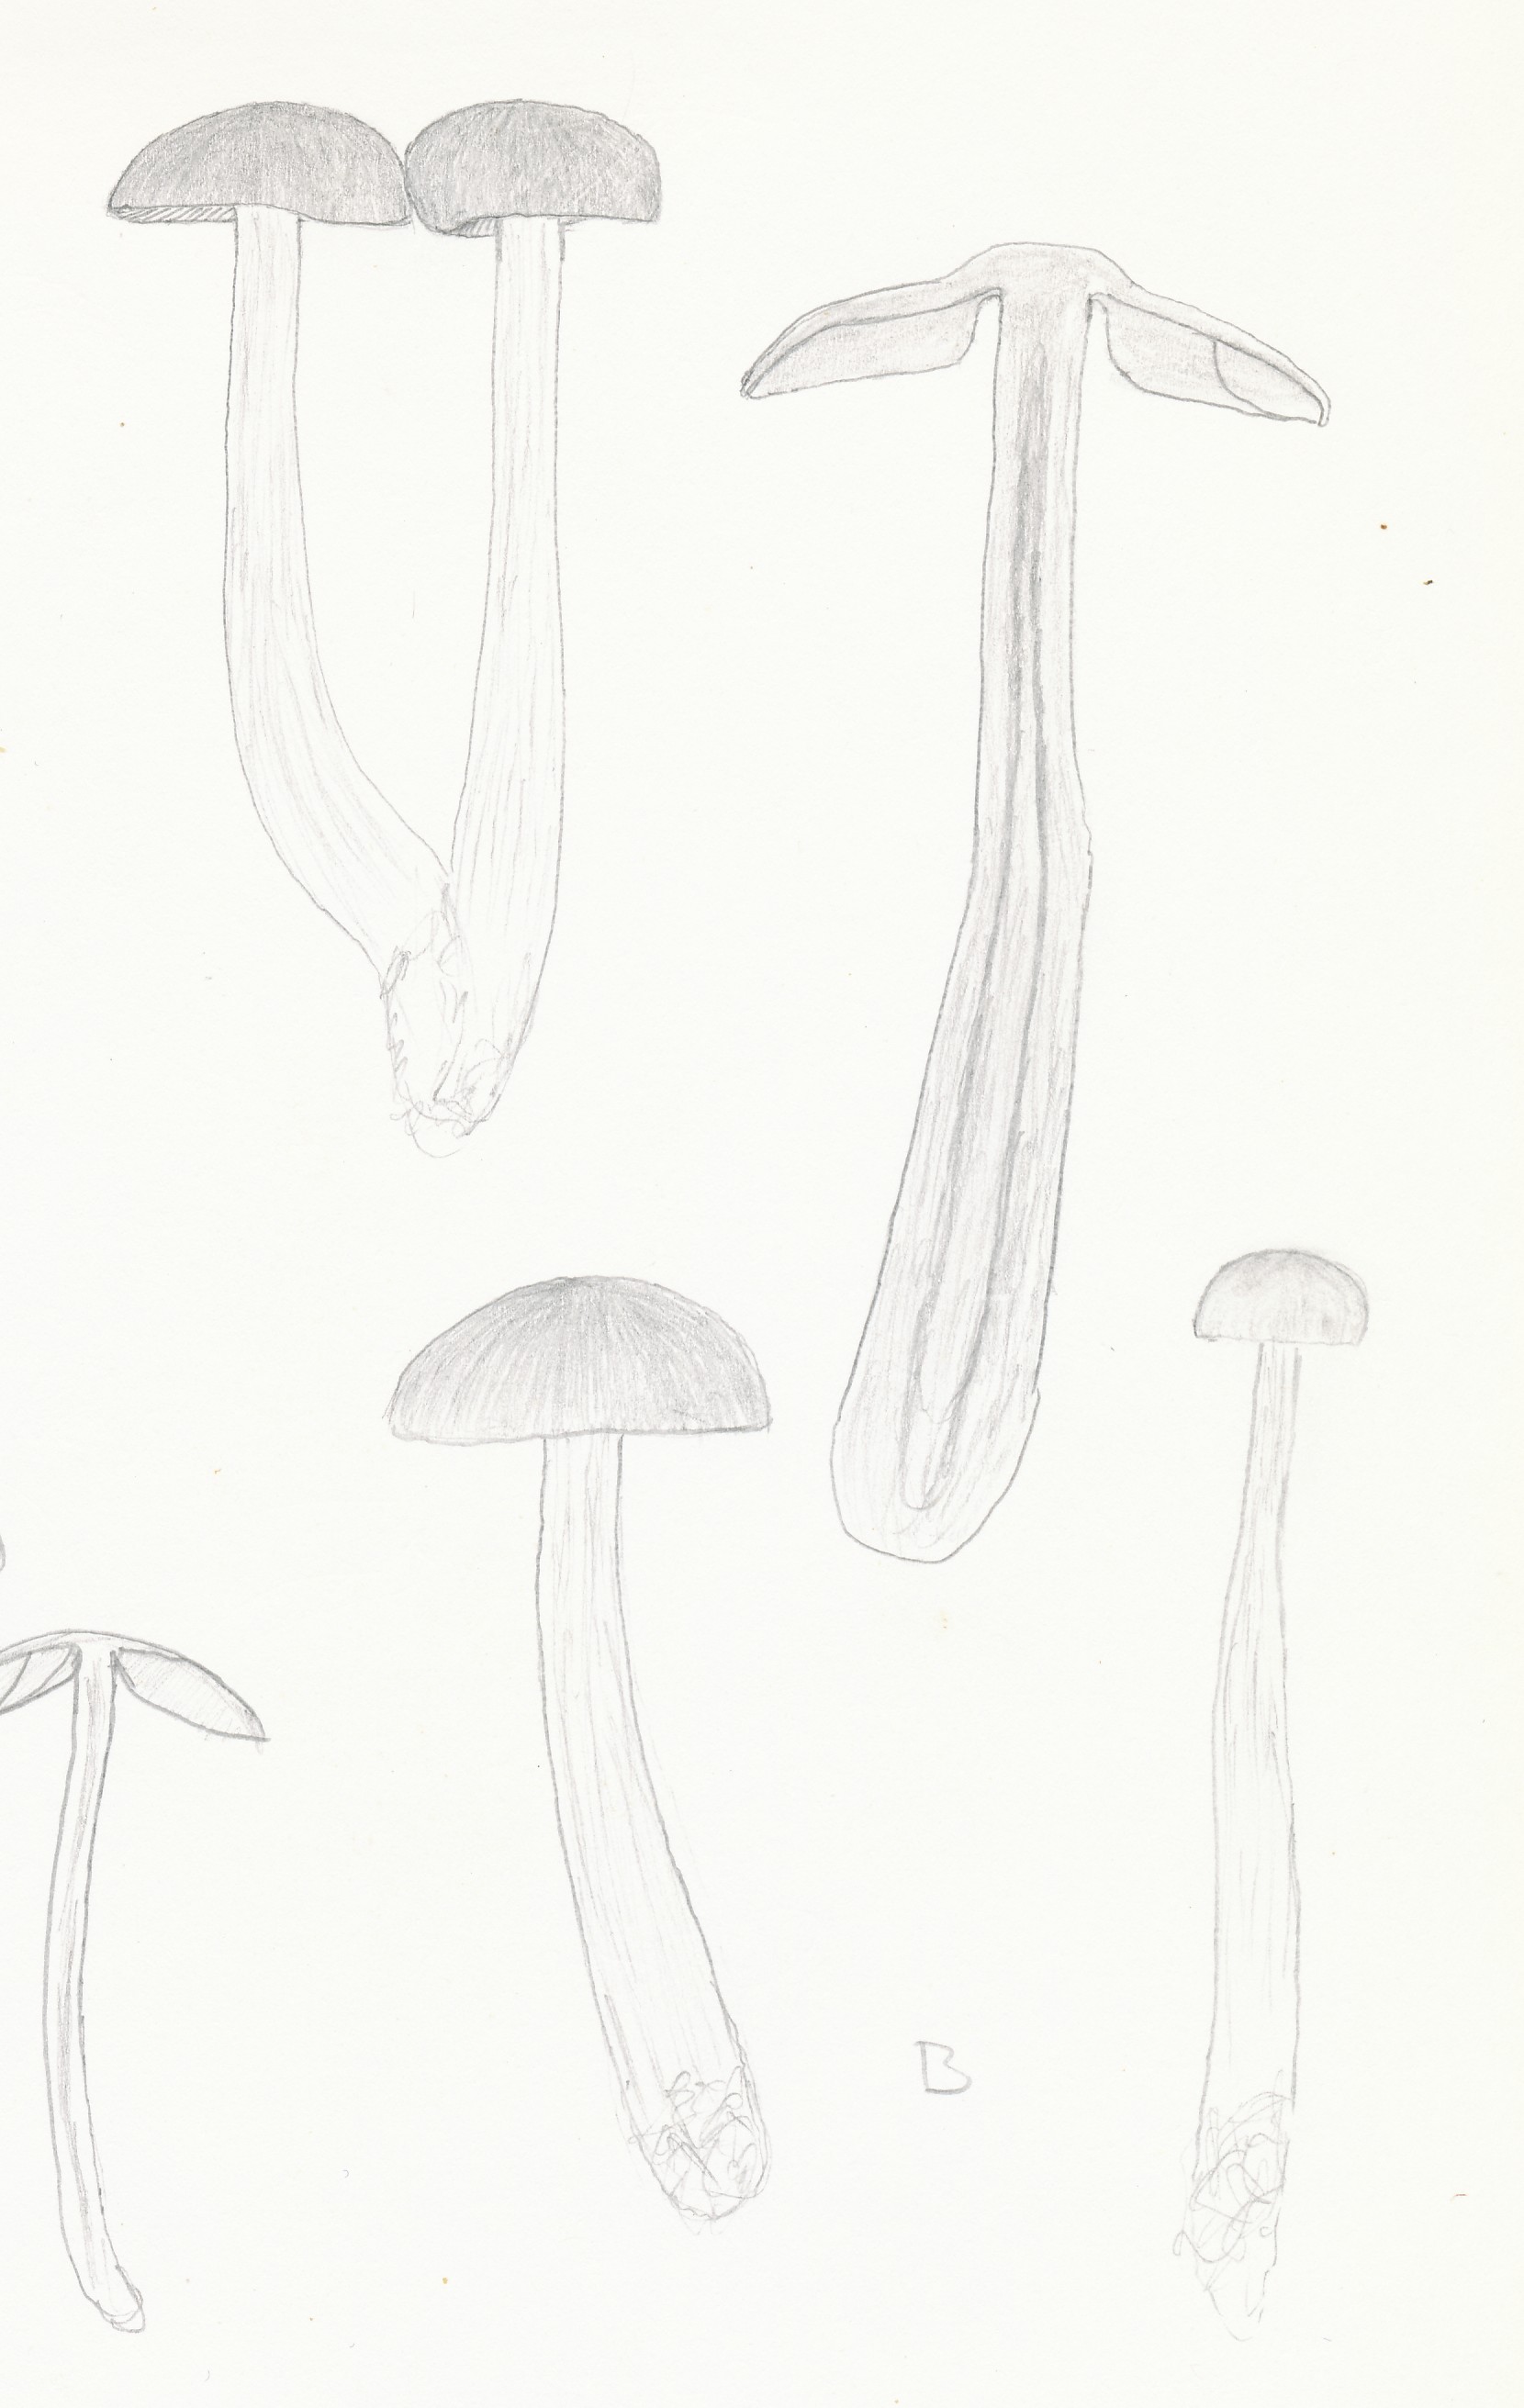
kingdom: Fungi
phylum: Basidiomycota
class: Agaricomycetes
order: Agaricales
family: Entolomataceae
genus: Entocybe
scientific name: Entocybe turbida
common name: plantage-rødblad
